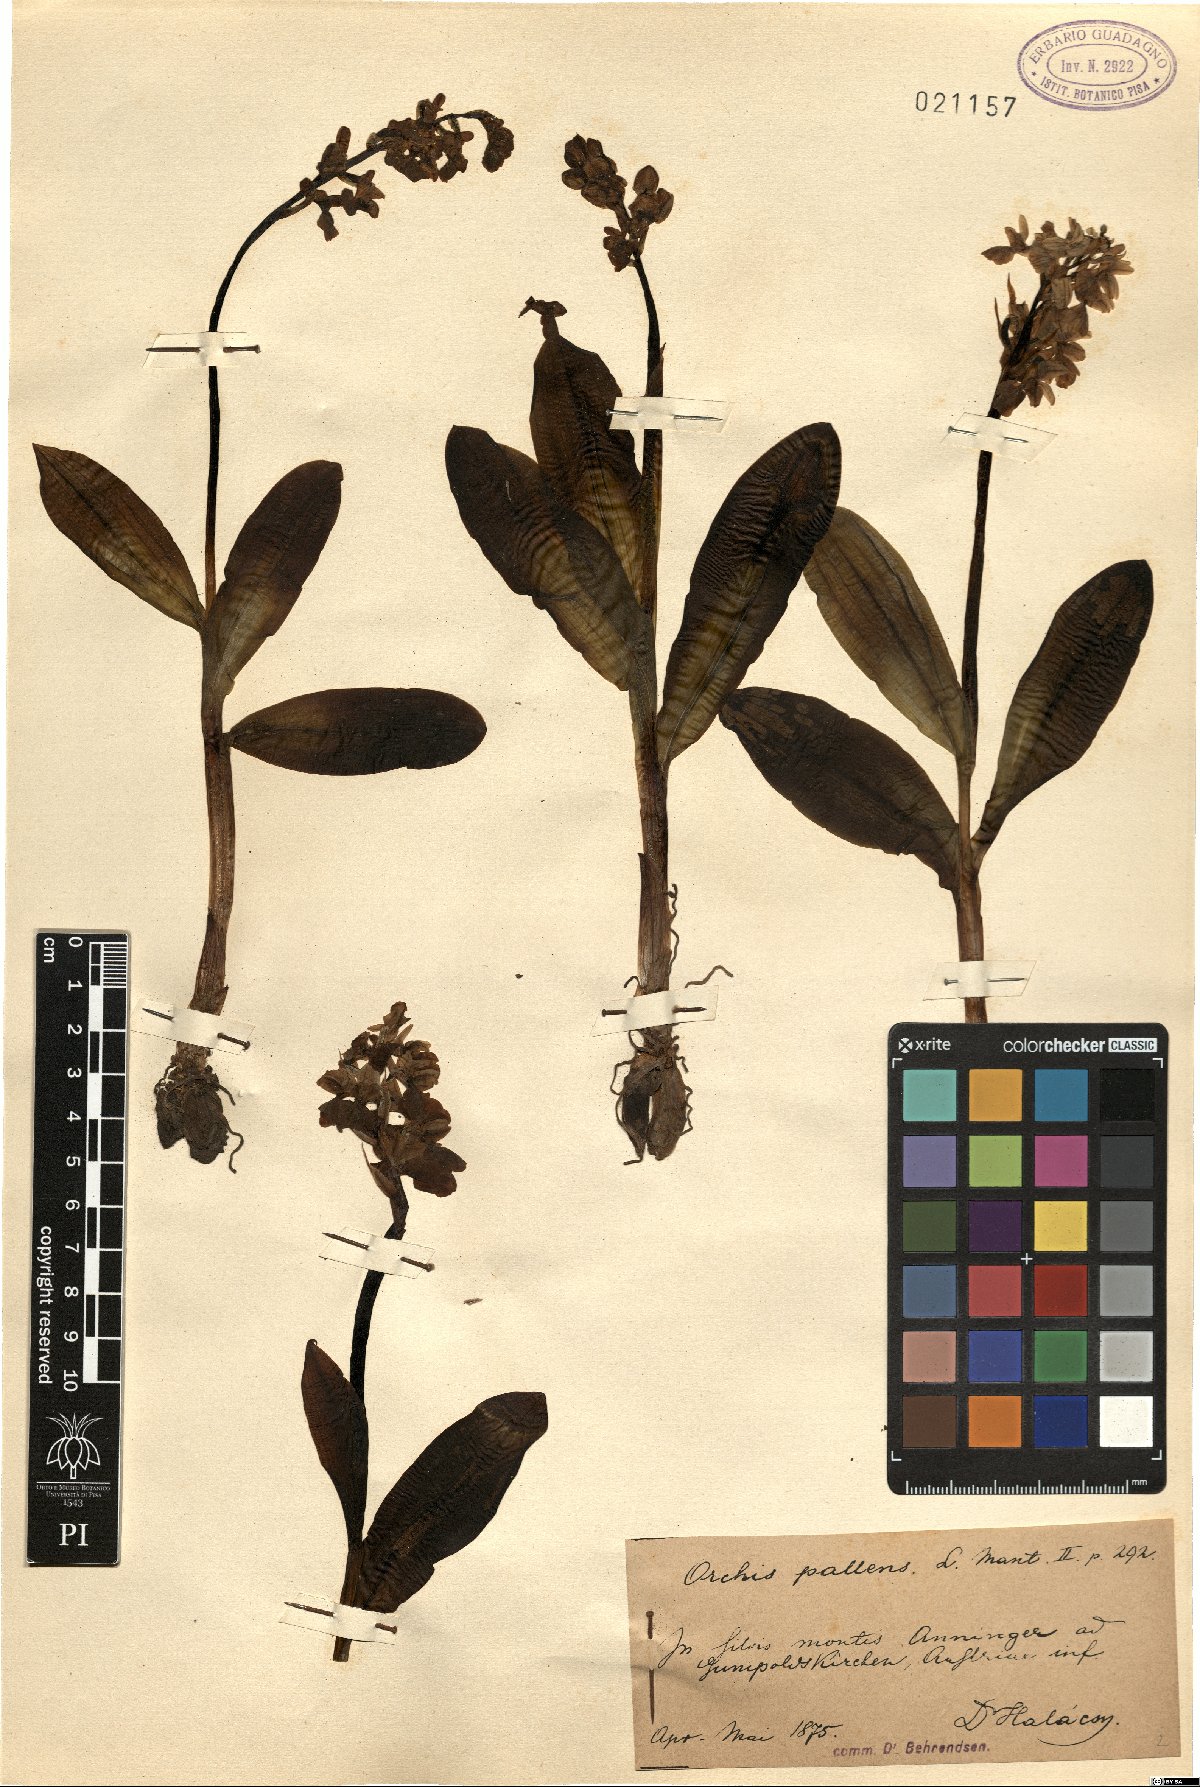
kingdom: Plantae
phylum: Tracheophyta
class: Liliopsida
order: Asparagales
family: Orchidaceae
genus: Orchis
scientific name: Orchis pallens
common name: Pale-flowered orchid
